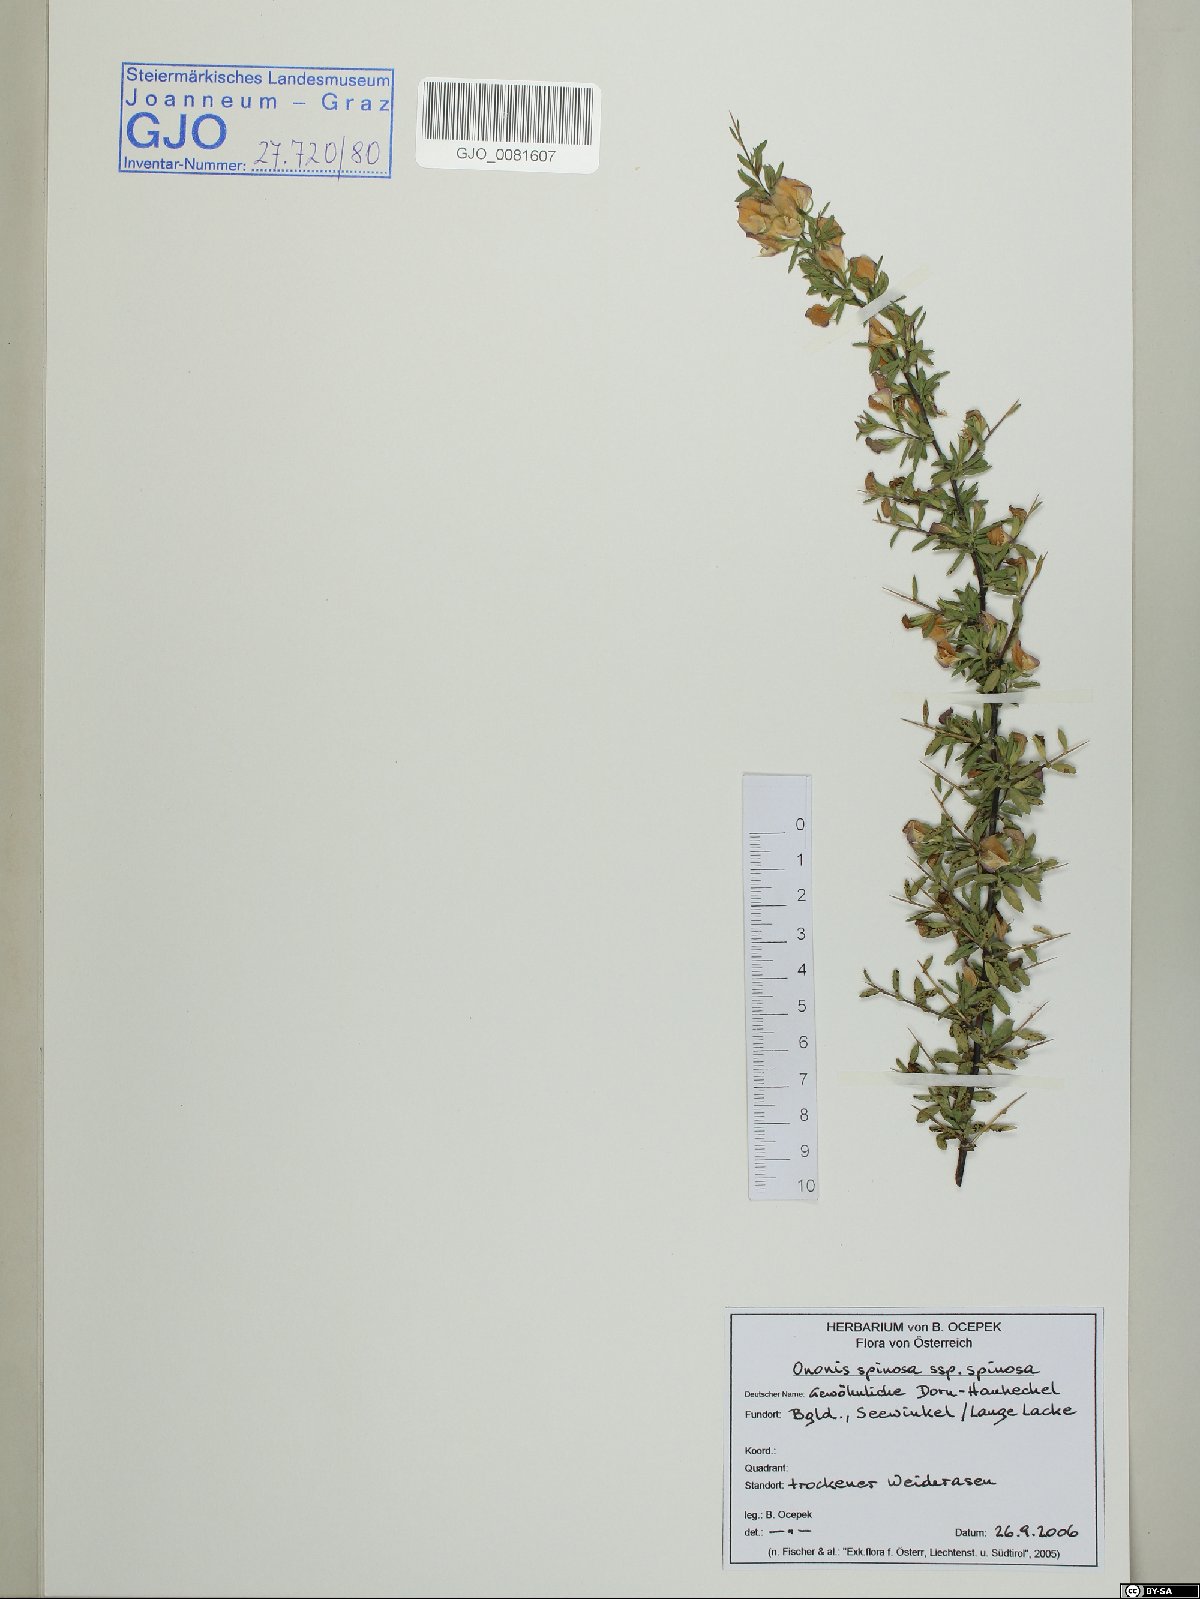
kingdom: Plantae
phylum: Tracheophyta
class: Magnoliopsida
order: Fabales
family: Fabaceae
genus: Ononis
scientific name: Ononis spinosa
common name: Spiny restharrow
